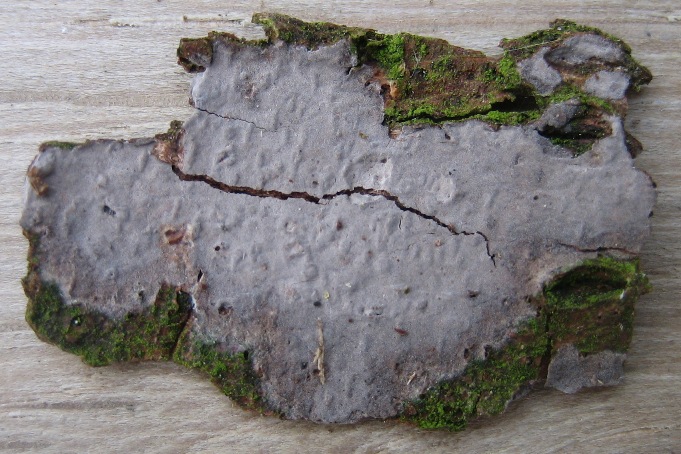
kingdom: Fungi
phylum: Basidiomycota
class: Agaricomycetes
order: Russulales
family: Peniophoraceae
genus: Peniophora
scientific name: Peniophora lycii
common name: grynet voksskind
